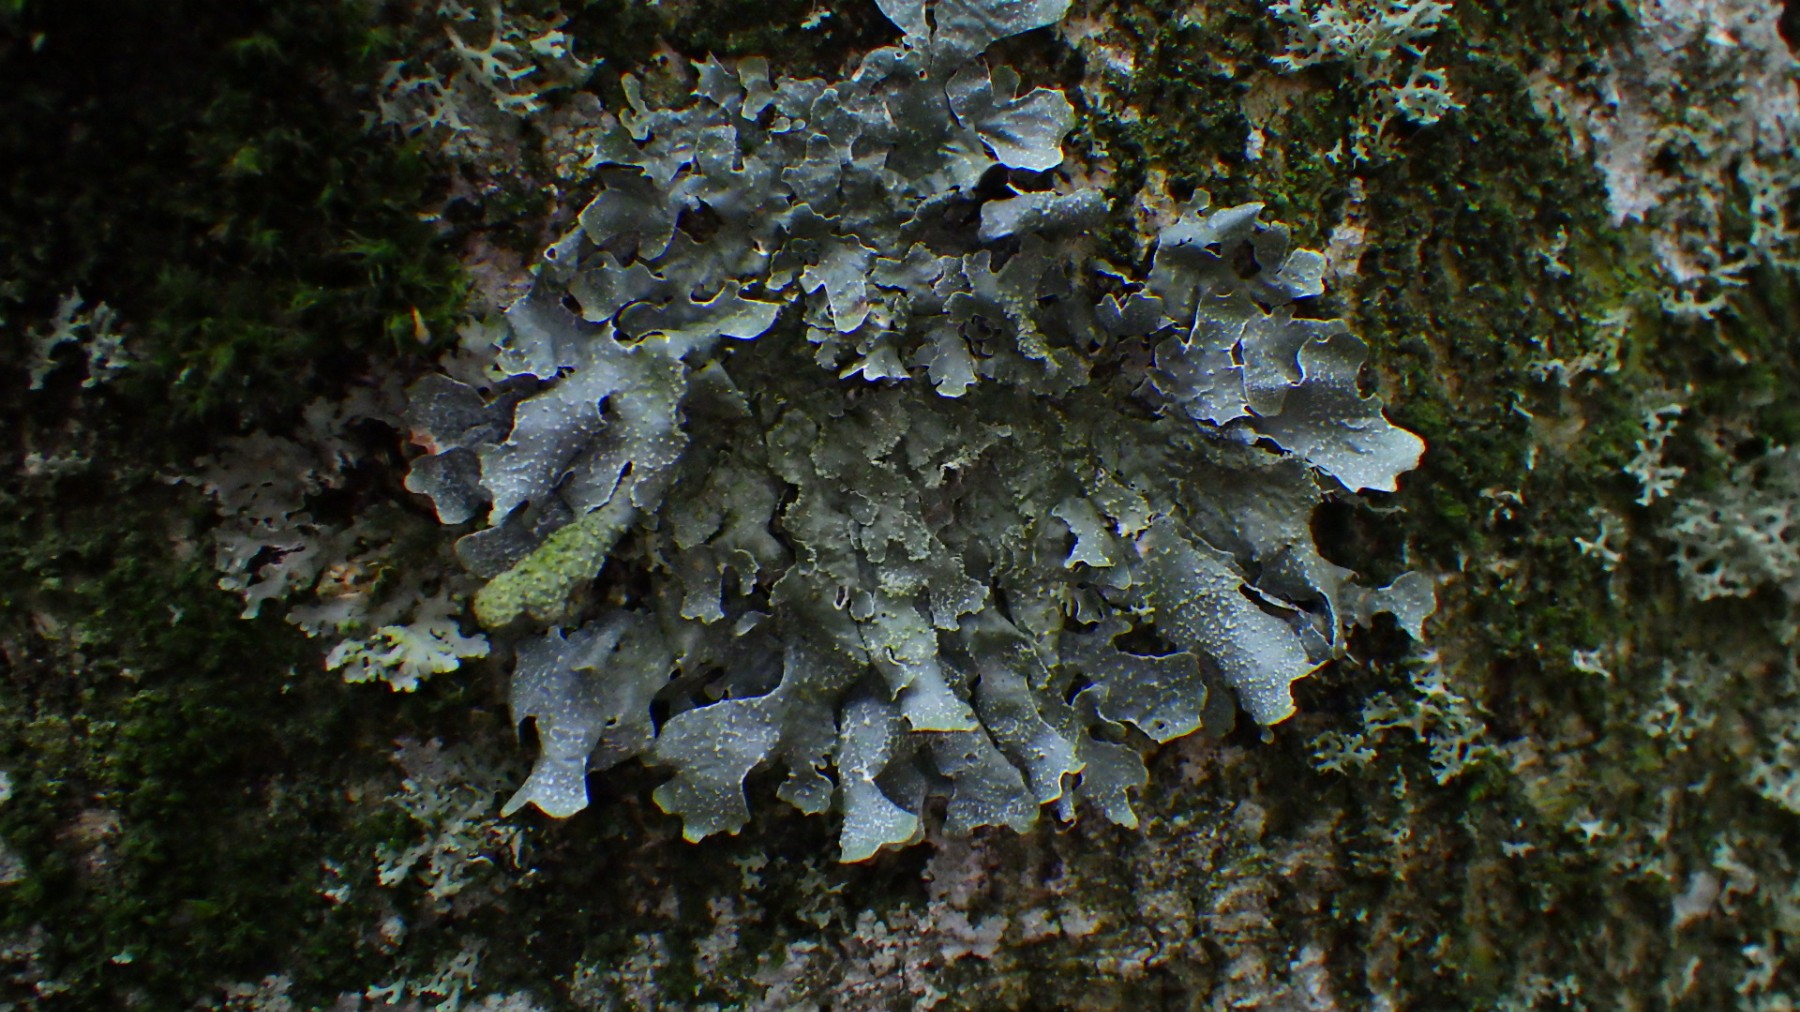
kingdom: Fungi
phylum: Ascomycota
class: Lecanoromycetes
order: Lecanorales
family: Parmeliaceae
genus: Parmelia
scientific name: Parmelia submontana
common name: langlobet skållav
